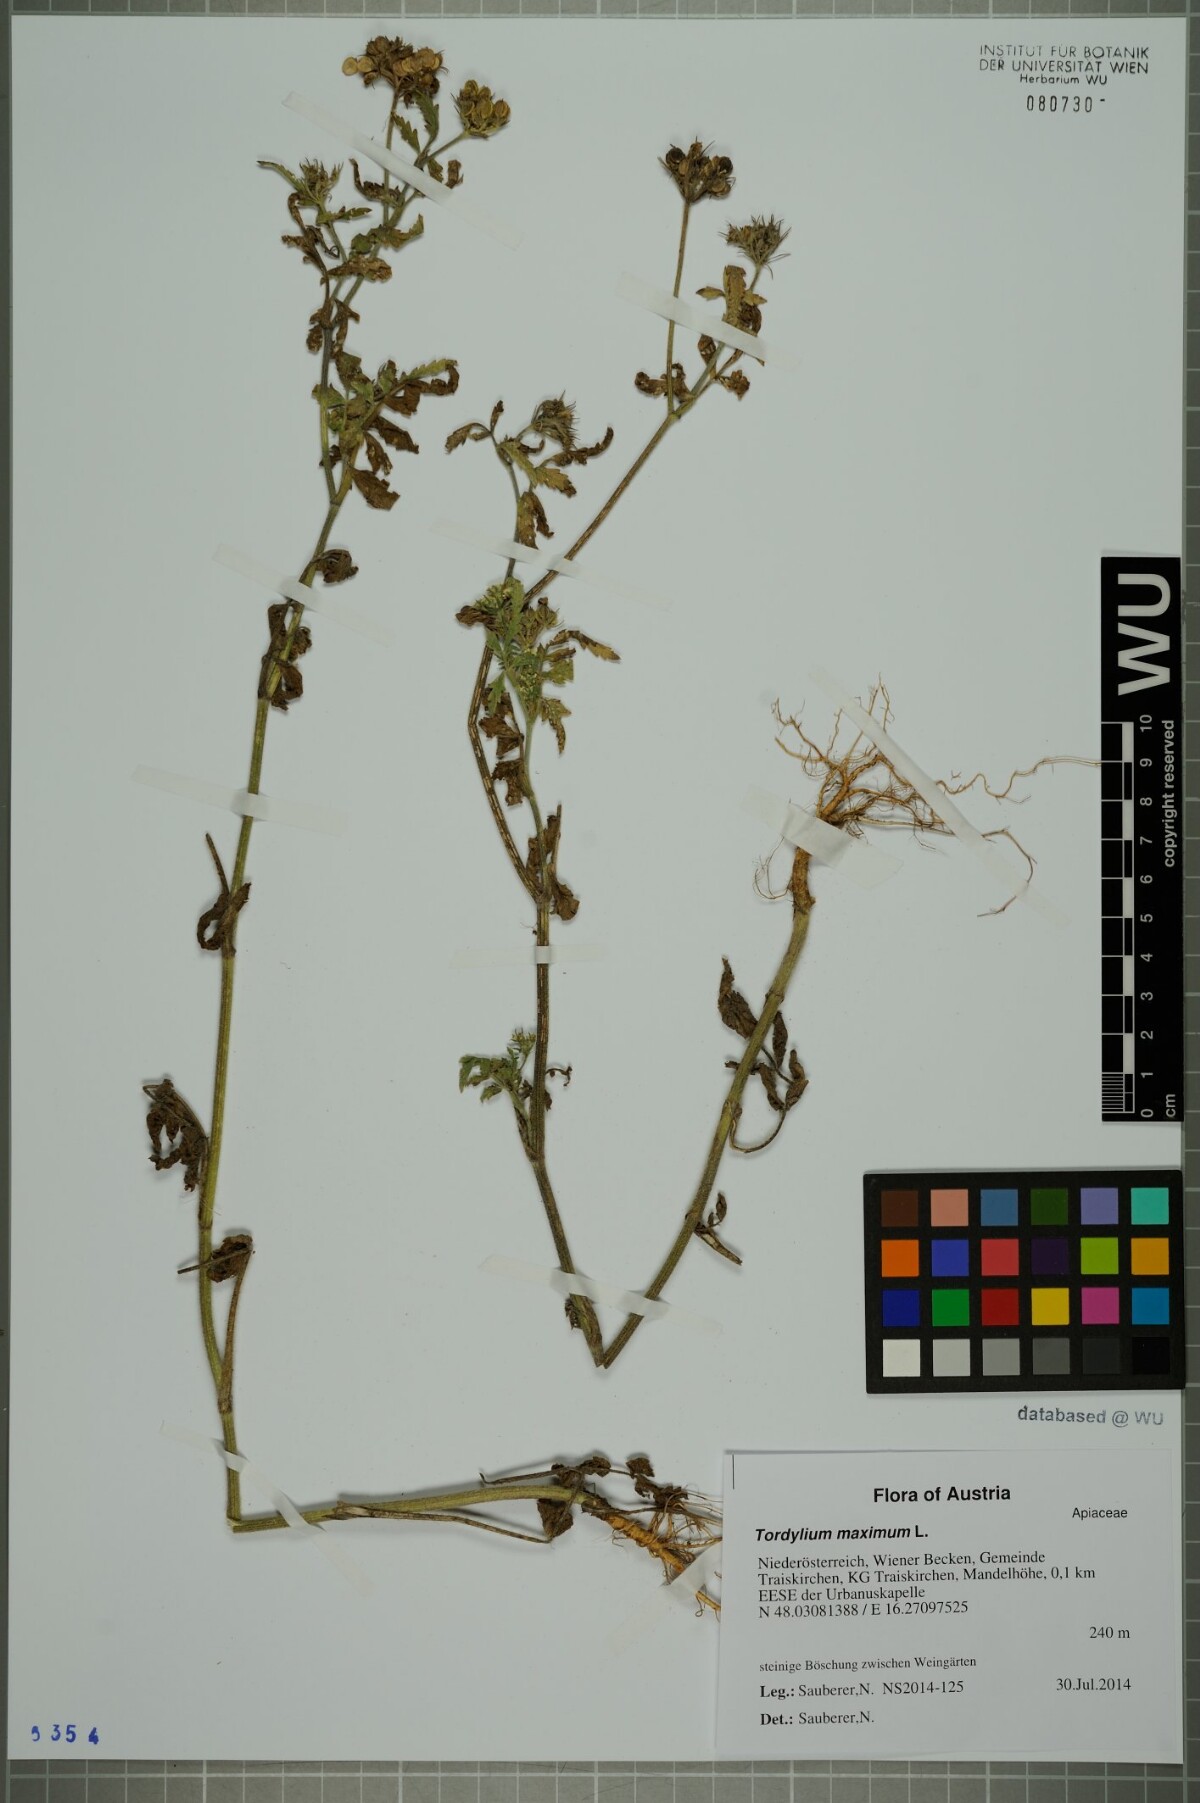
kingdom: Plantae
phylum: Tracheophyta
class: Magnoliopsida
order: Apiales
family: Apiaceae
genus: Tordylium
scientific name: Tordylium maximum
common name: Hartwort
